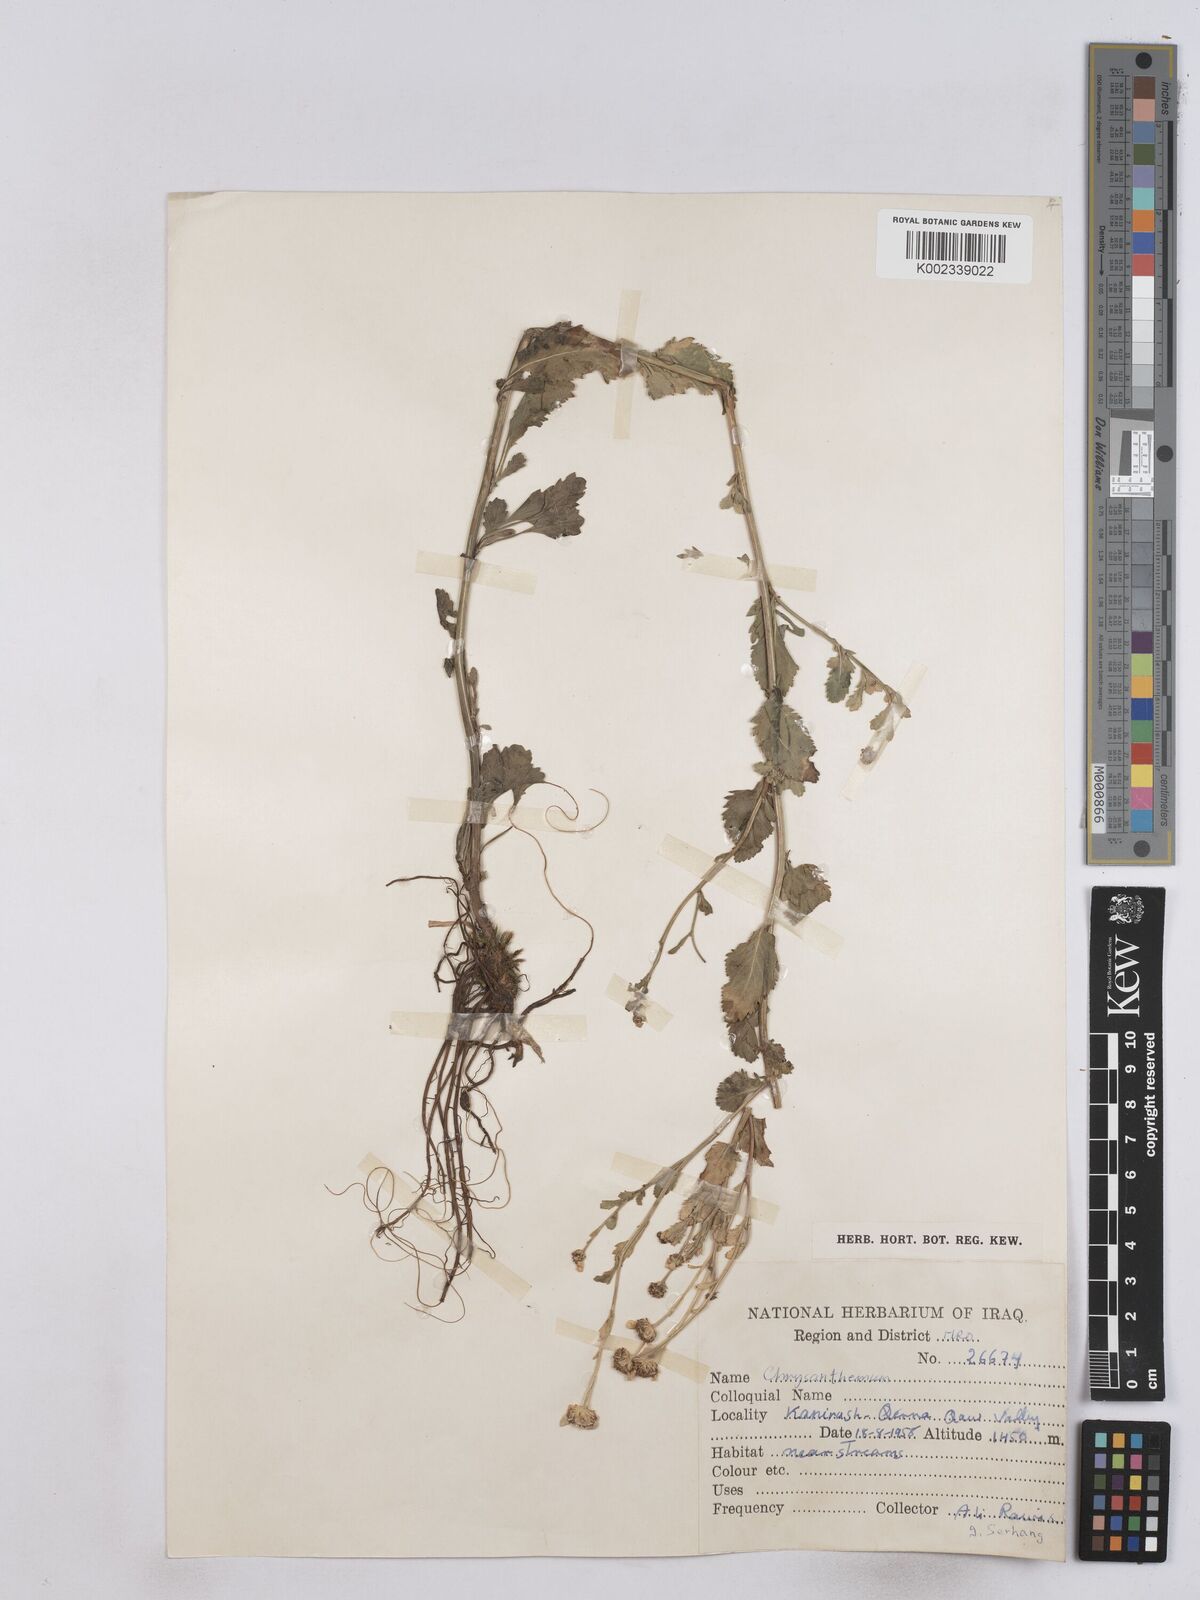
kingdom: Plantae
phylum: Tracheophyta
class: Magnoliopsida
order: Asterales
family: Asteraceae
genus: Tanacetum
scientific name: Tanacetum balsamitoides
